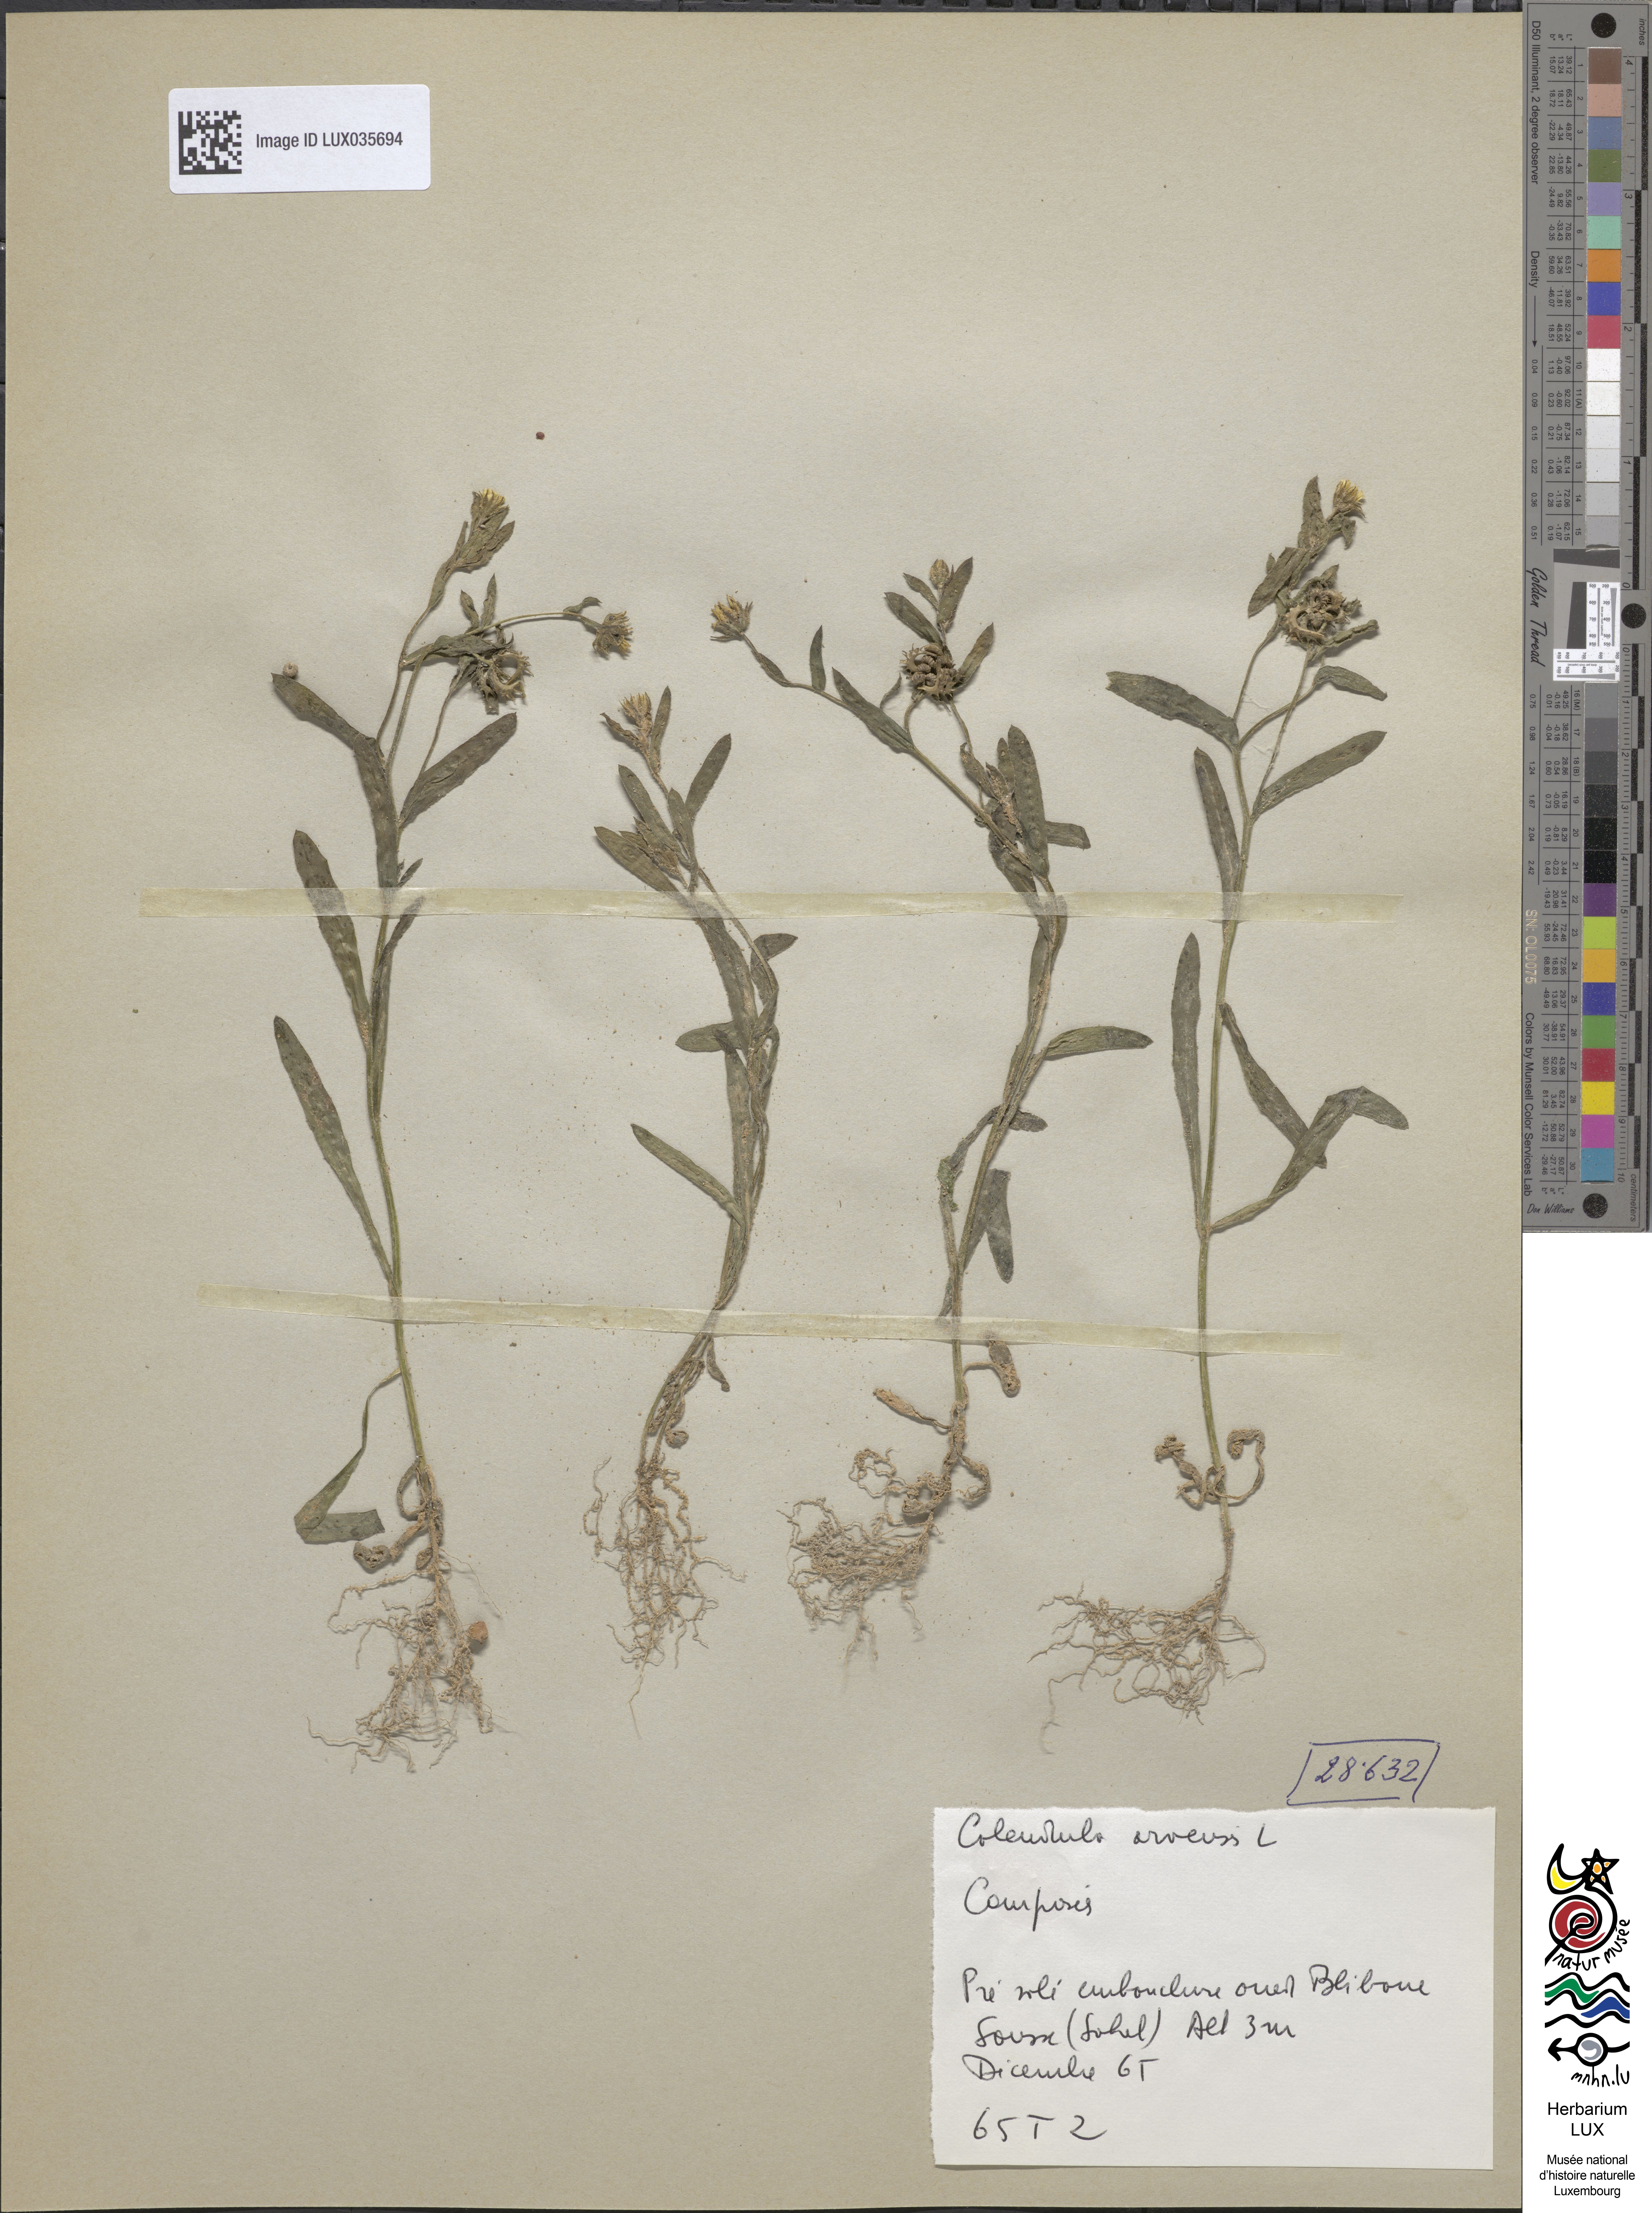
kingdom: Plantae
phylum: Tracheophyta
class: Magnoliopsida
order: Asterales
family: Asteraceae
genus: Calendula
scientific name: Calendula arvensis
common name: Field marigold
